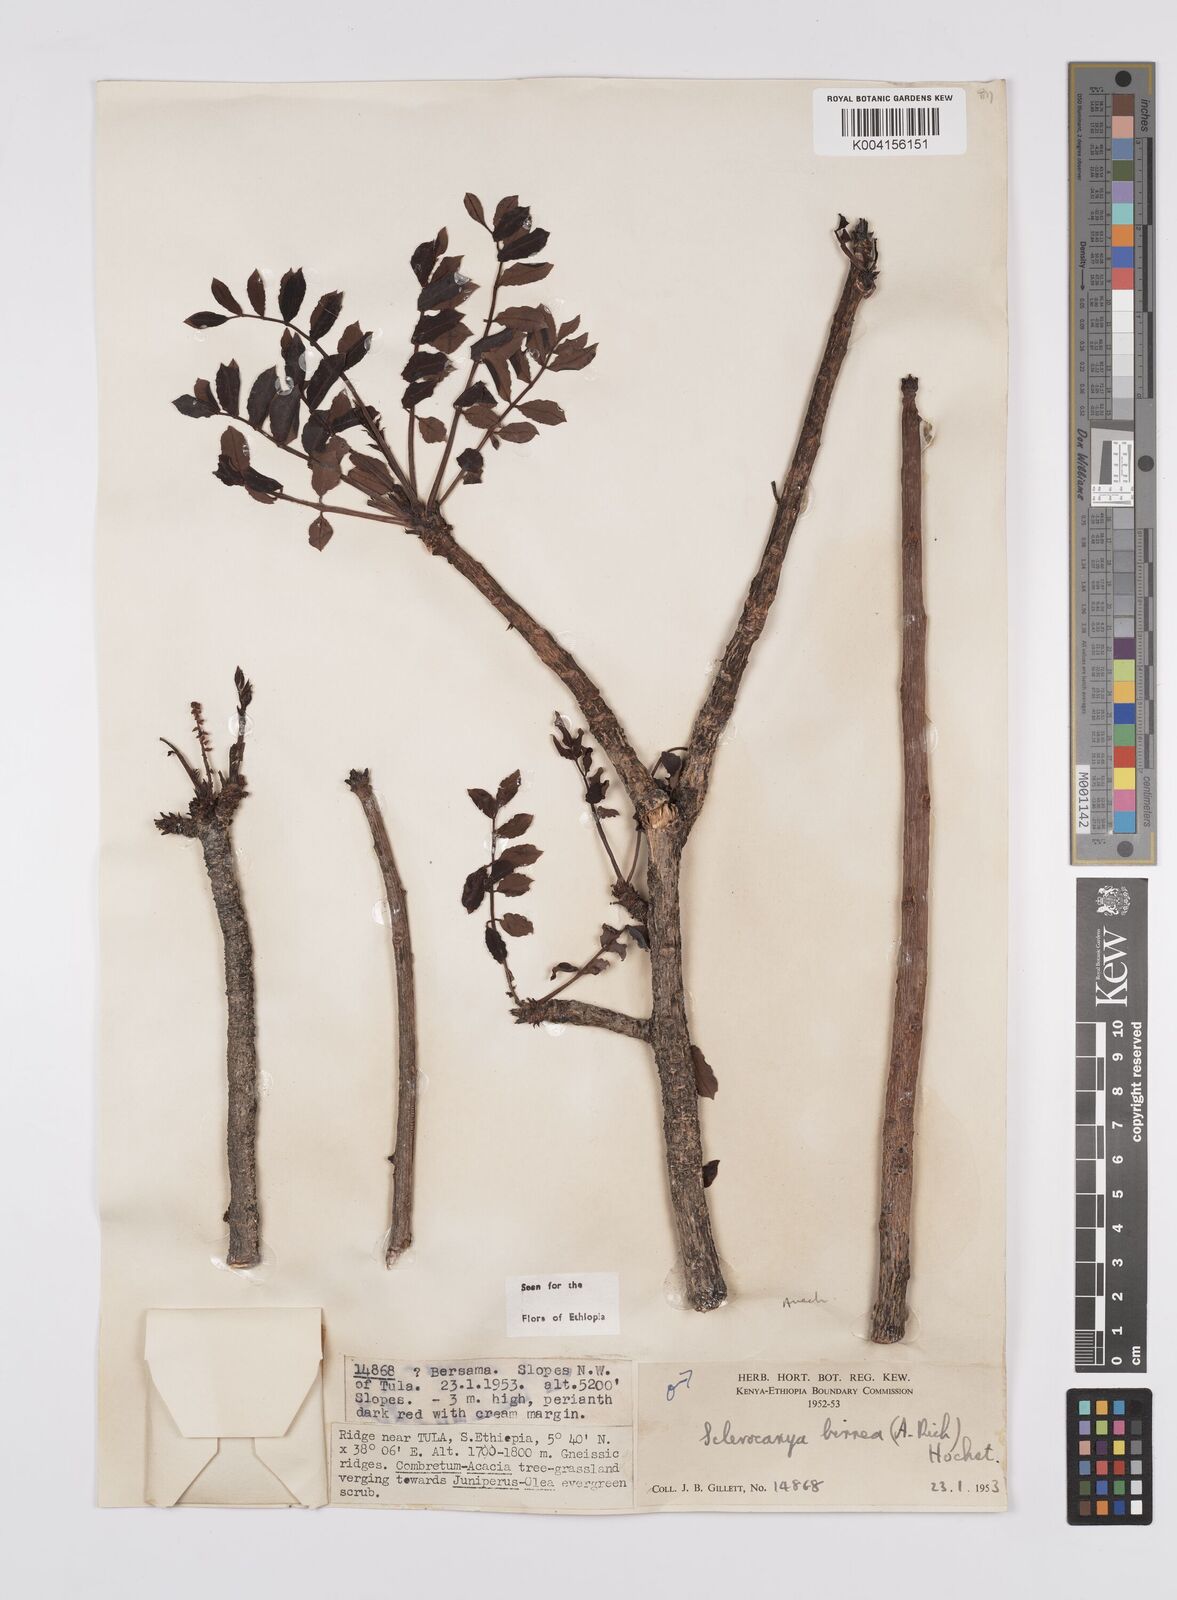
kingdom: Plantae
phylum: Tracheophyta
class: Magnoliopsida
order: Sapindales
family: Anacardiaceae
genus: Sclerocarya
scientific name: Sclerocarya birrea
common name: Marula
